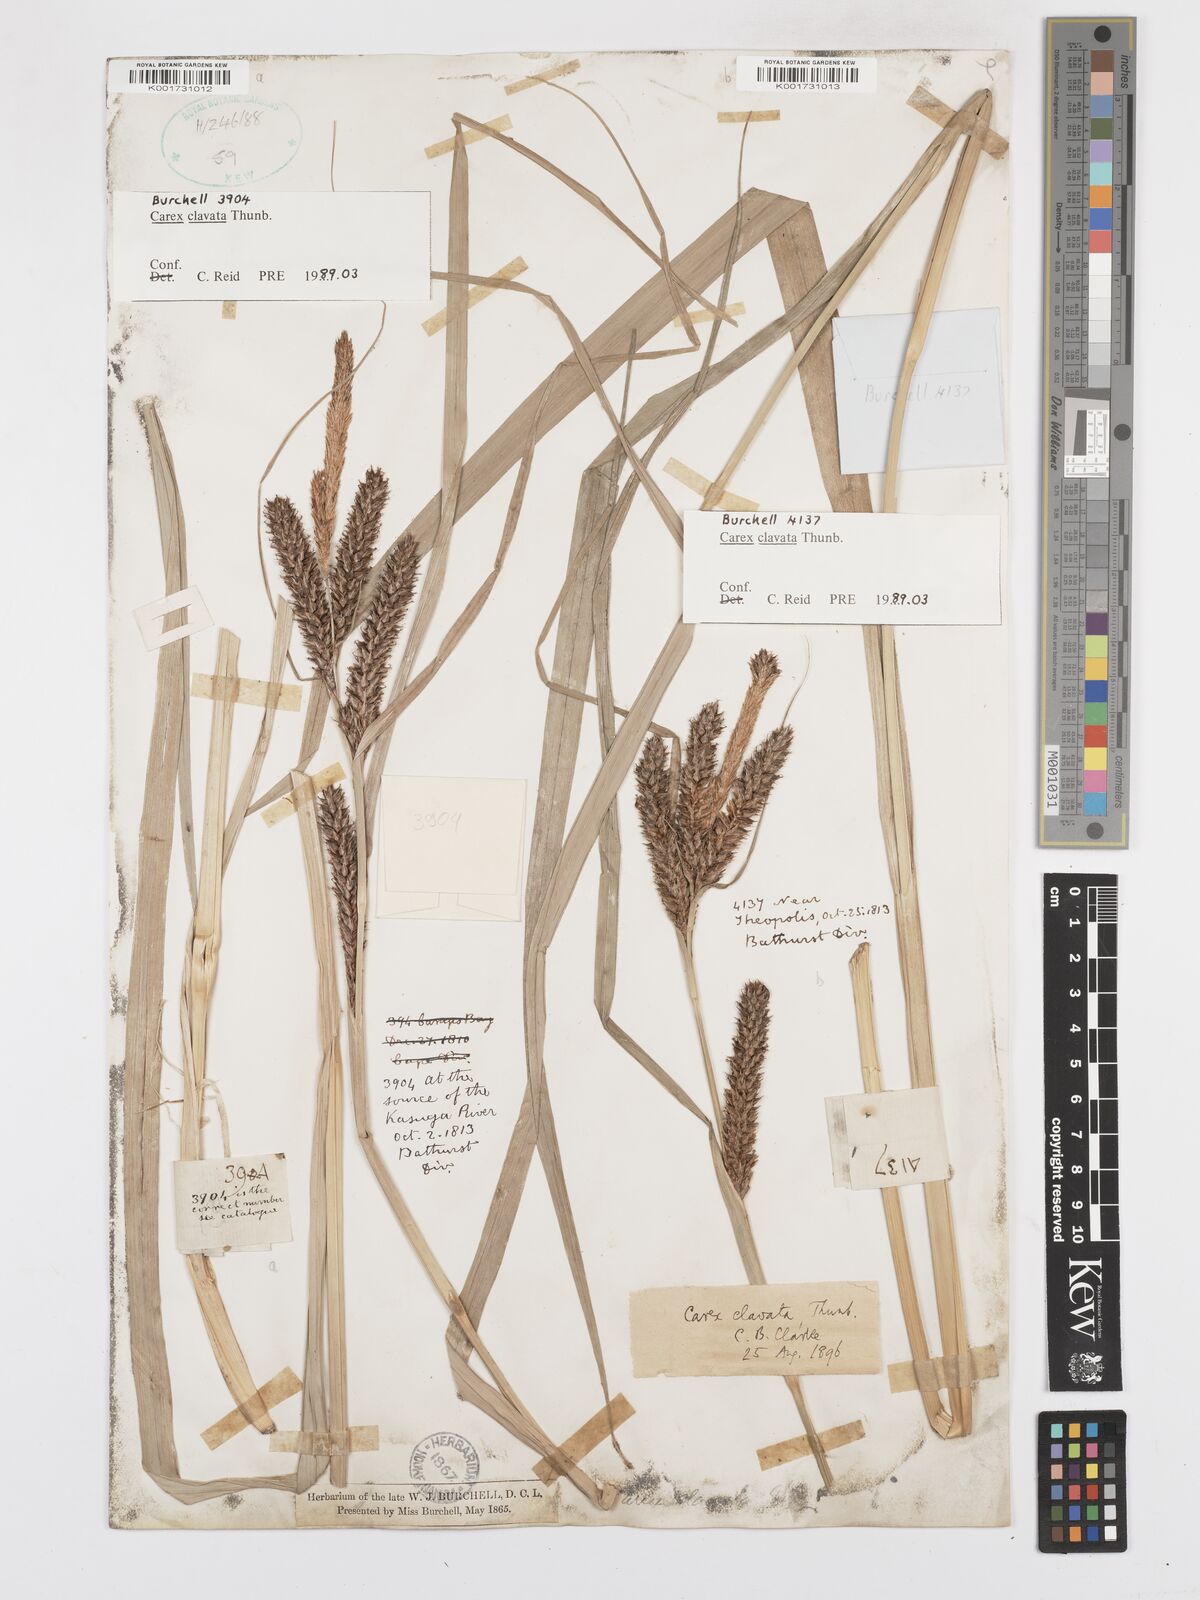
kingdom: Plantae
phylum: Tracheophyta
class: Liliopsida
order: Poales
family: Cyperaceae
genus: Carex
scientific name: Carex clavata
